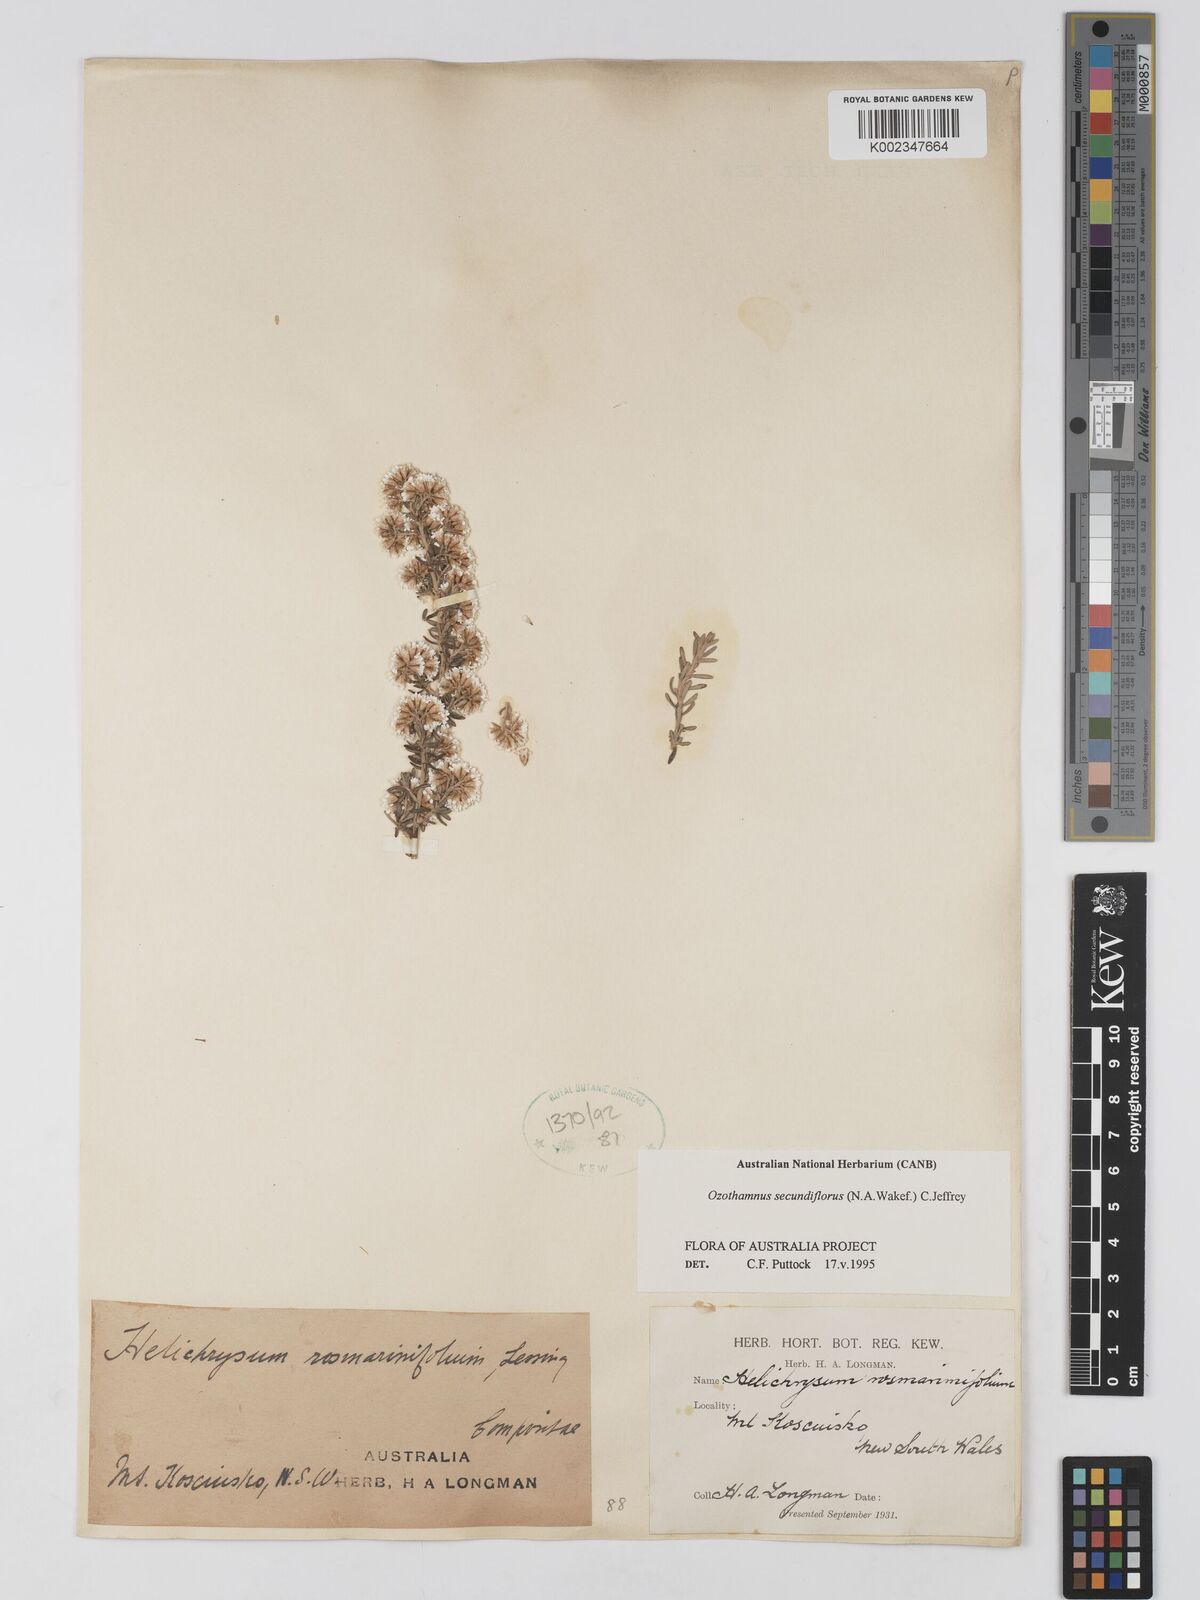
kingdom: Plantae
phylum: Tracheophyta
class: Magnoliopsida
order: Asterales
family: Asteraceae
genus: Ozothamnus
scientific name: Ozothamnus secundiflorus
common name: Cascade everlasting
